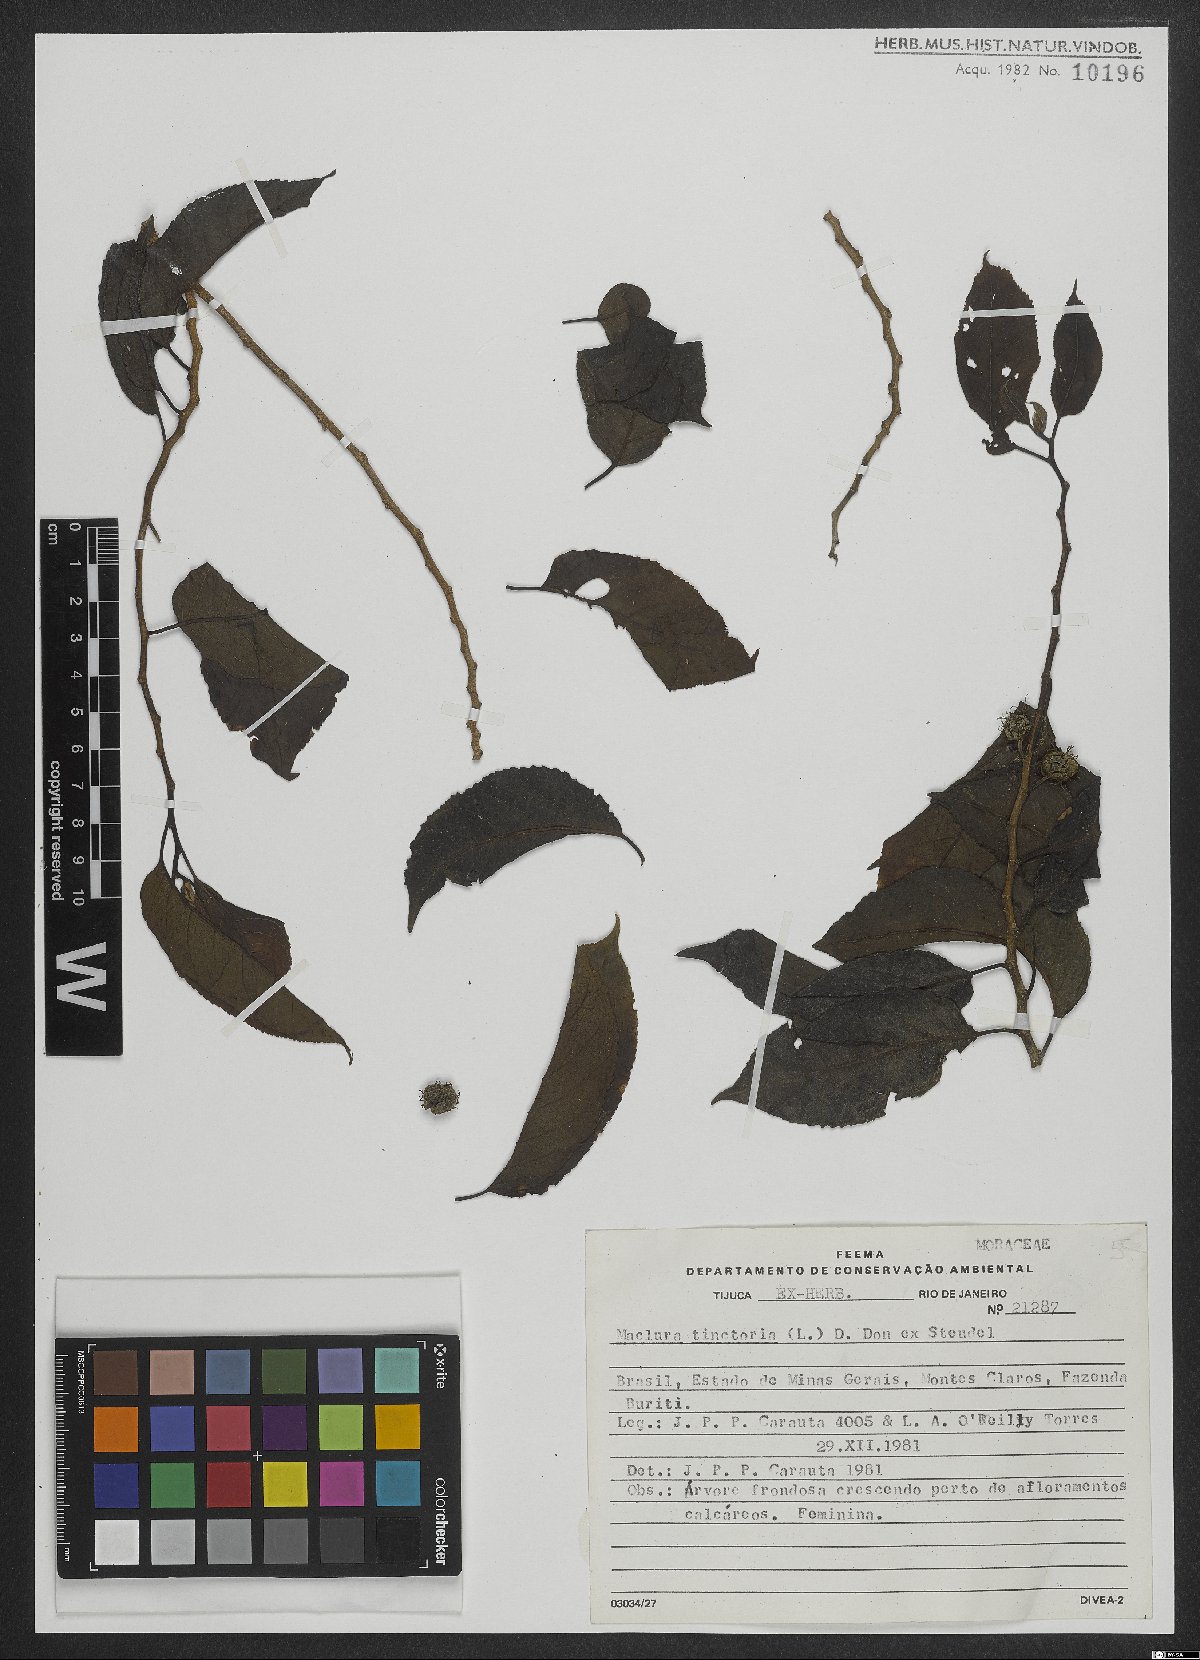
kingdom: Plantae
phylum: Tracheophyta
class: Magnoliopsida
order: Rosales
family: Moraceae
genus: Maclura
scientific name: Maclura tinctoria
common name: Old fustic
